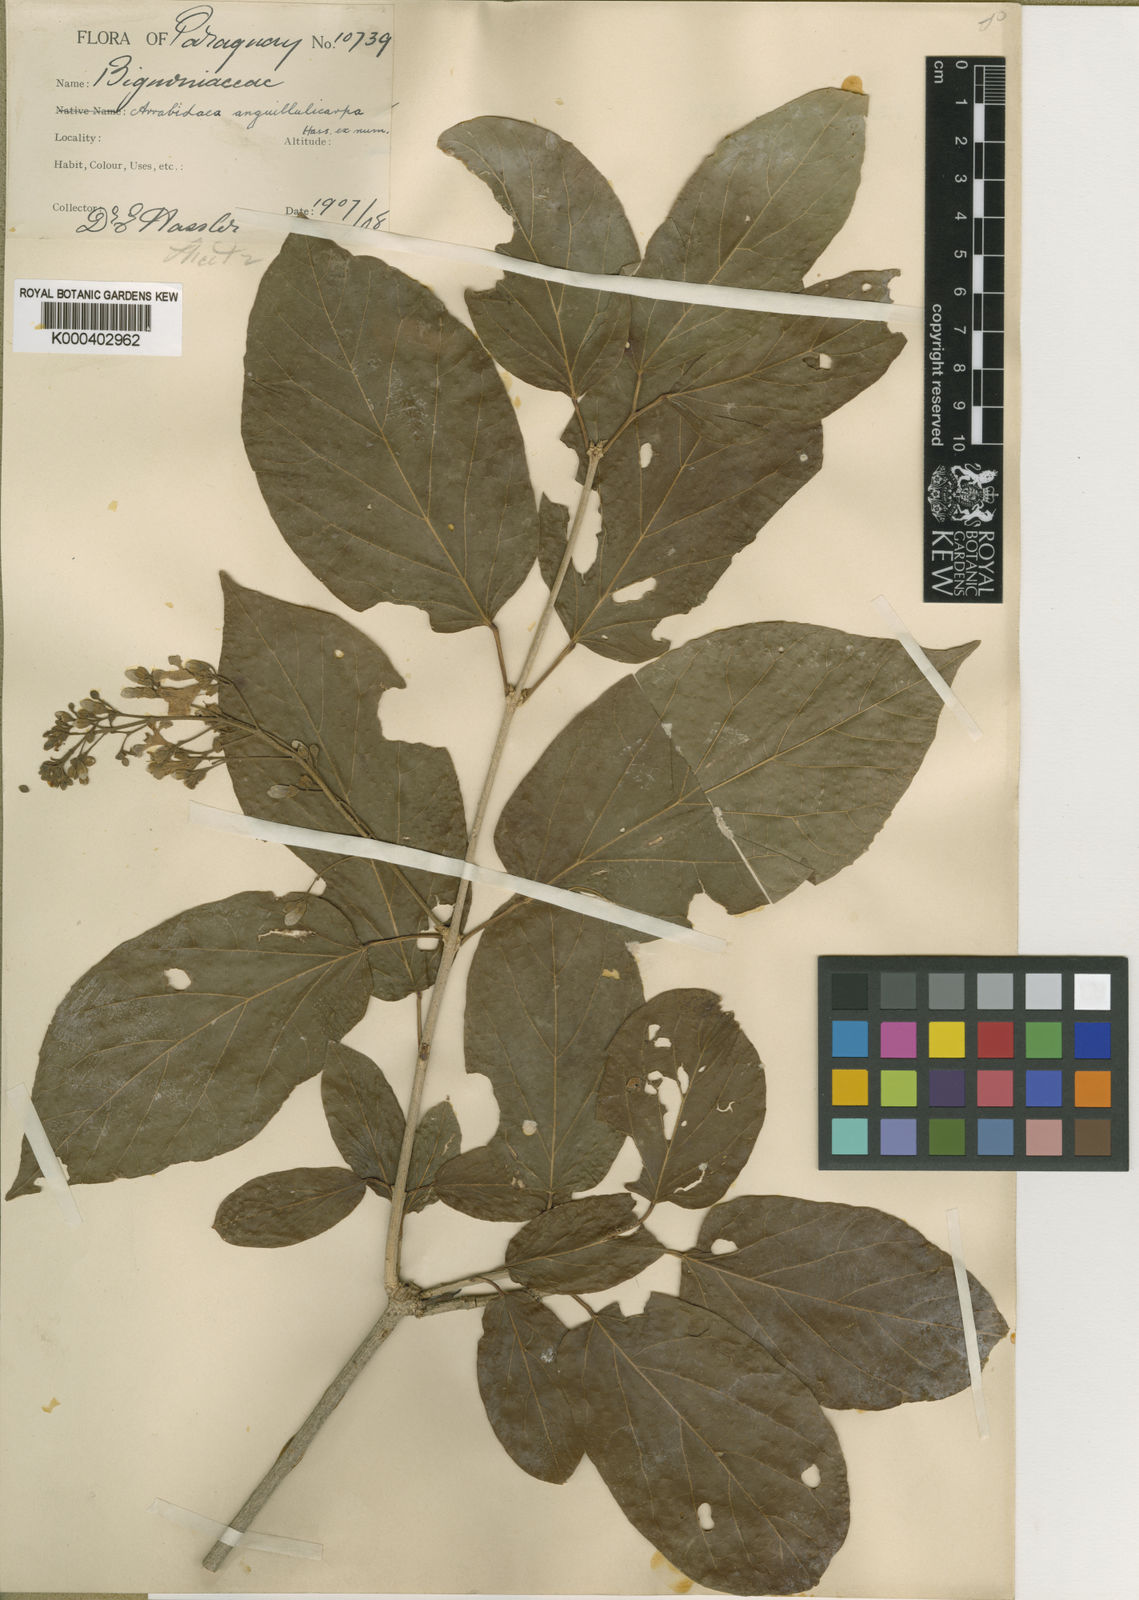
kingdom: Plantae
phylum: Tracheophyta
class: Magnoliopsida
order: Lamiales
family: Bignoniaceae
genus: Fridericia
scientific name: Fridericia samydoides
